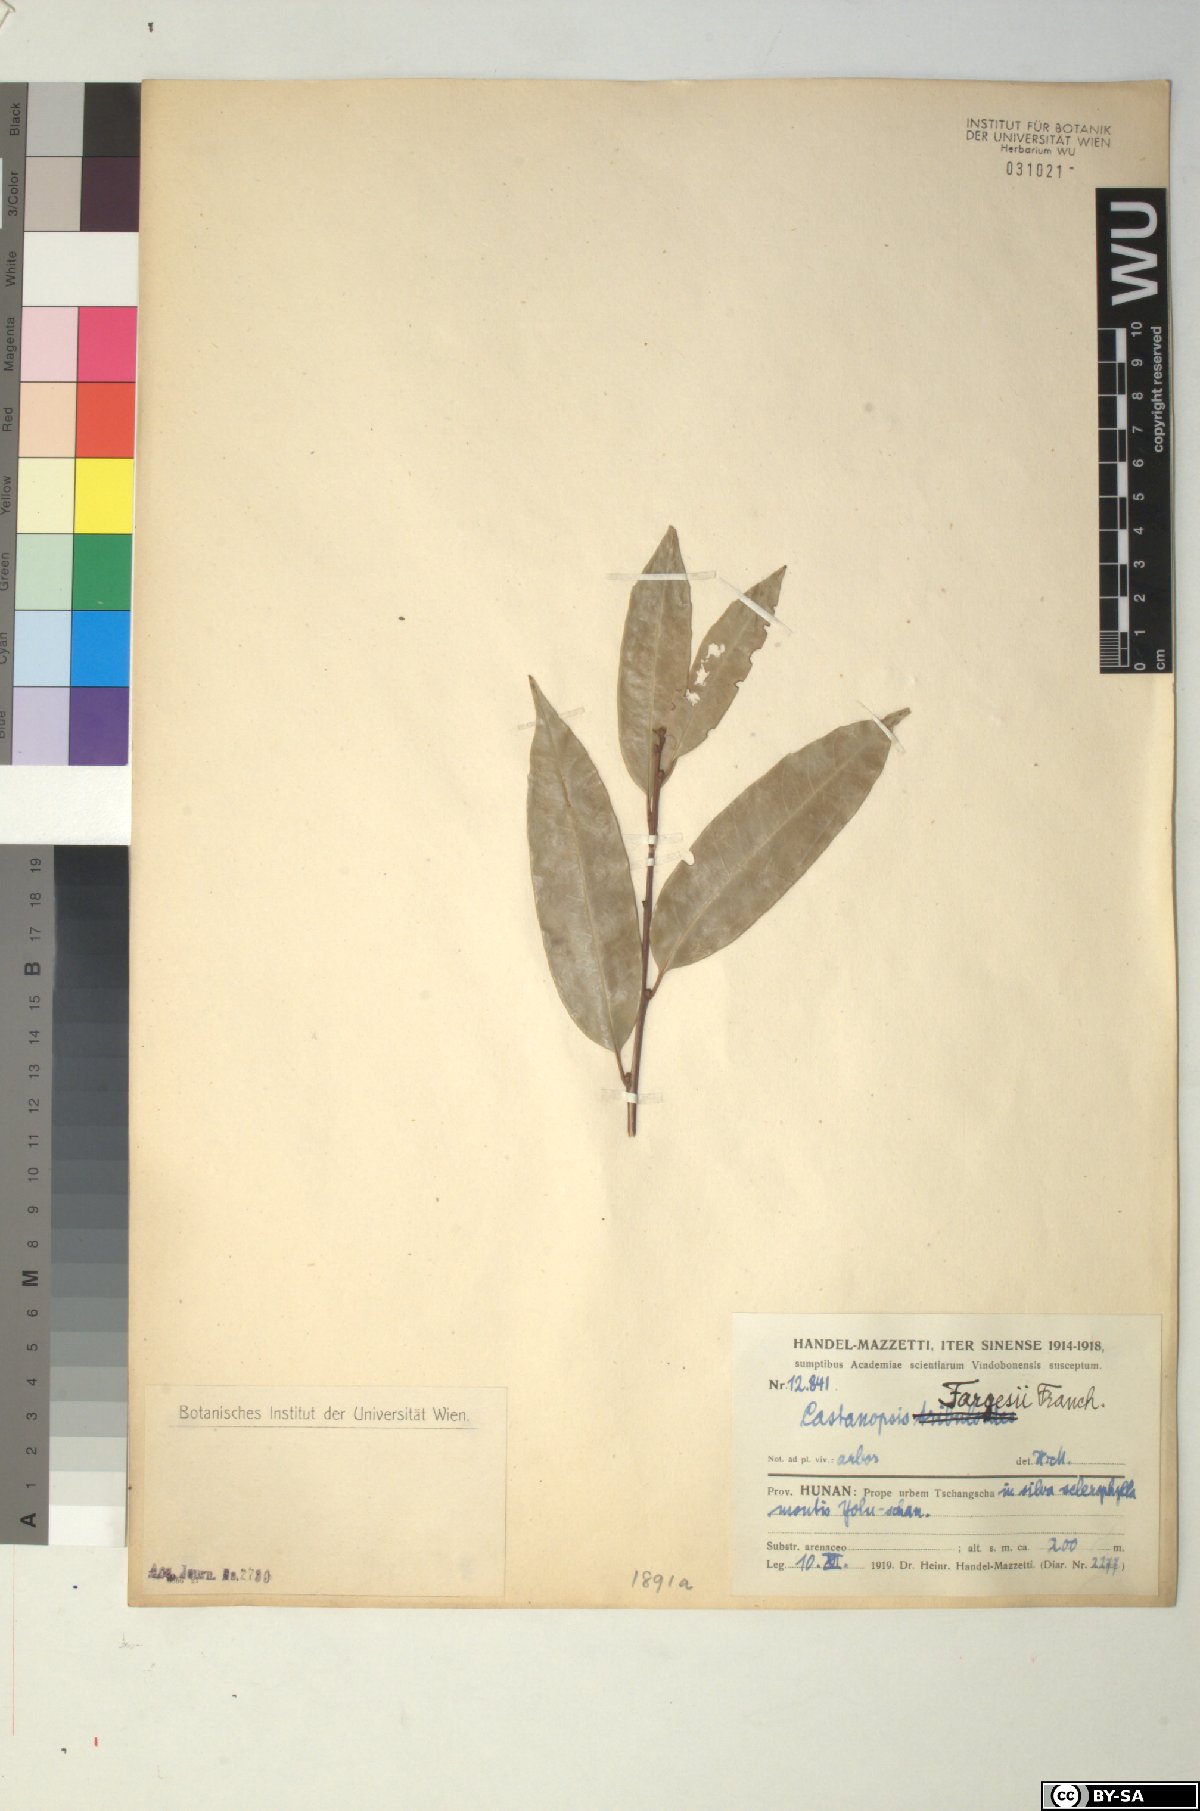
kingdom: Plantae
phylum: Tracheophyta
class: Magnoliopsida
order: Fagales
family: Fagaceae
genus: Castanopsis
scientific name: Castanopsis fargesii
